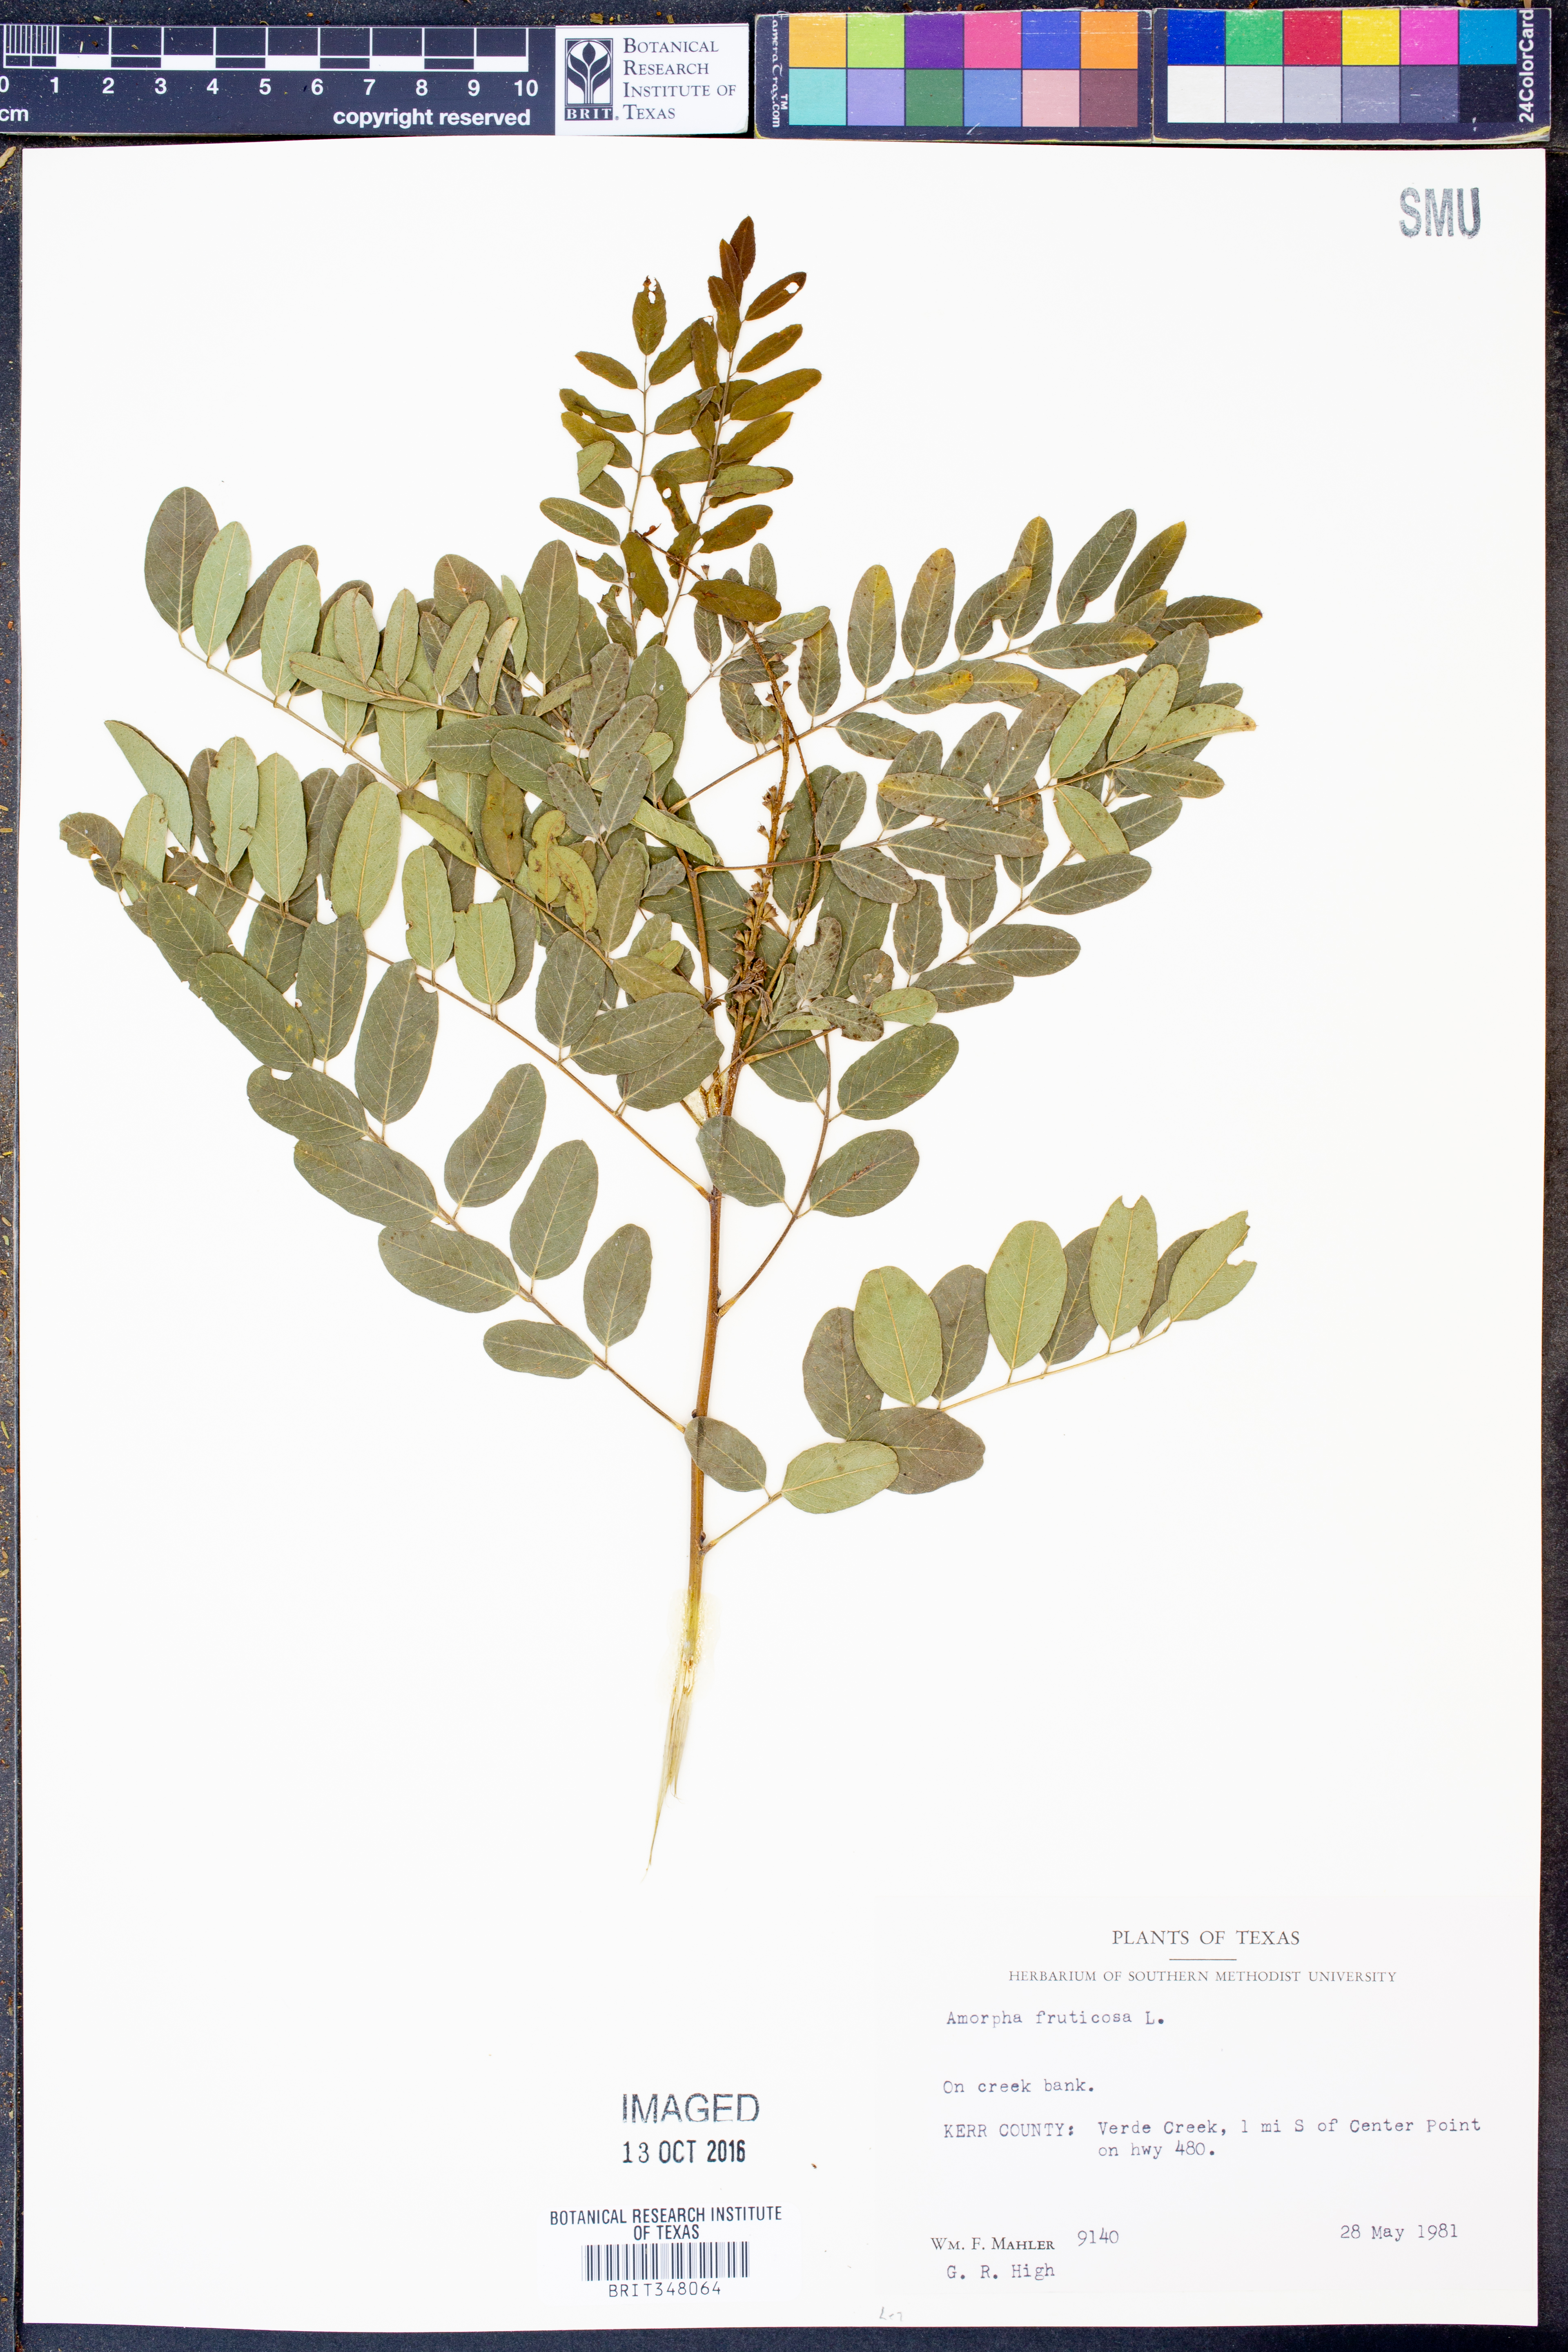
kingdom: Plantae
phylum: Tracheophyta
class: Magnoliopsida
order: Fabales
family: Fabaceae
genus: Amorpha
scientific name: Amorpha fruticosa
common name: False indigo
